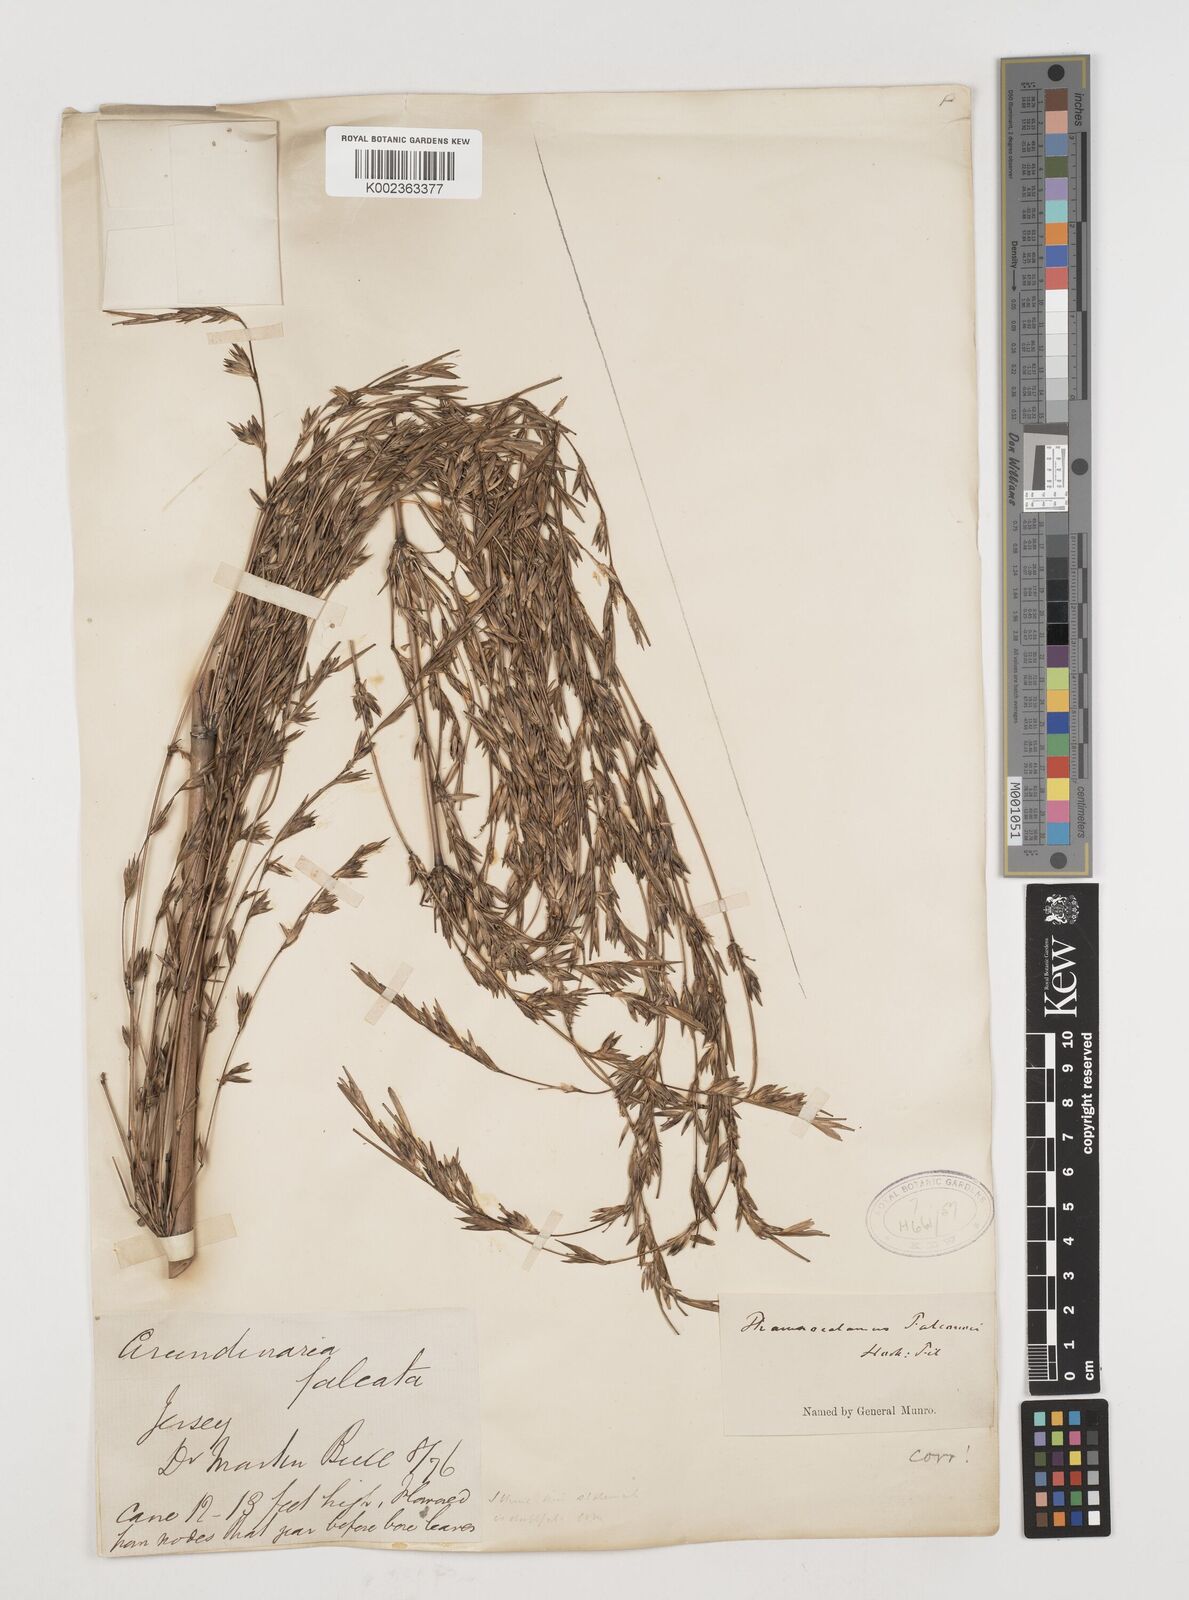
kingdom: Plantae
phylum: Tracheophyta
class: Liliopsida
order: Poales
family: Poaceae
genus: Himalayacalamus
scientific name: Himalayacalamus falconeri
